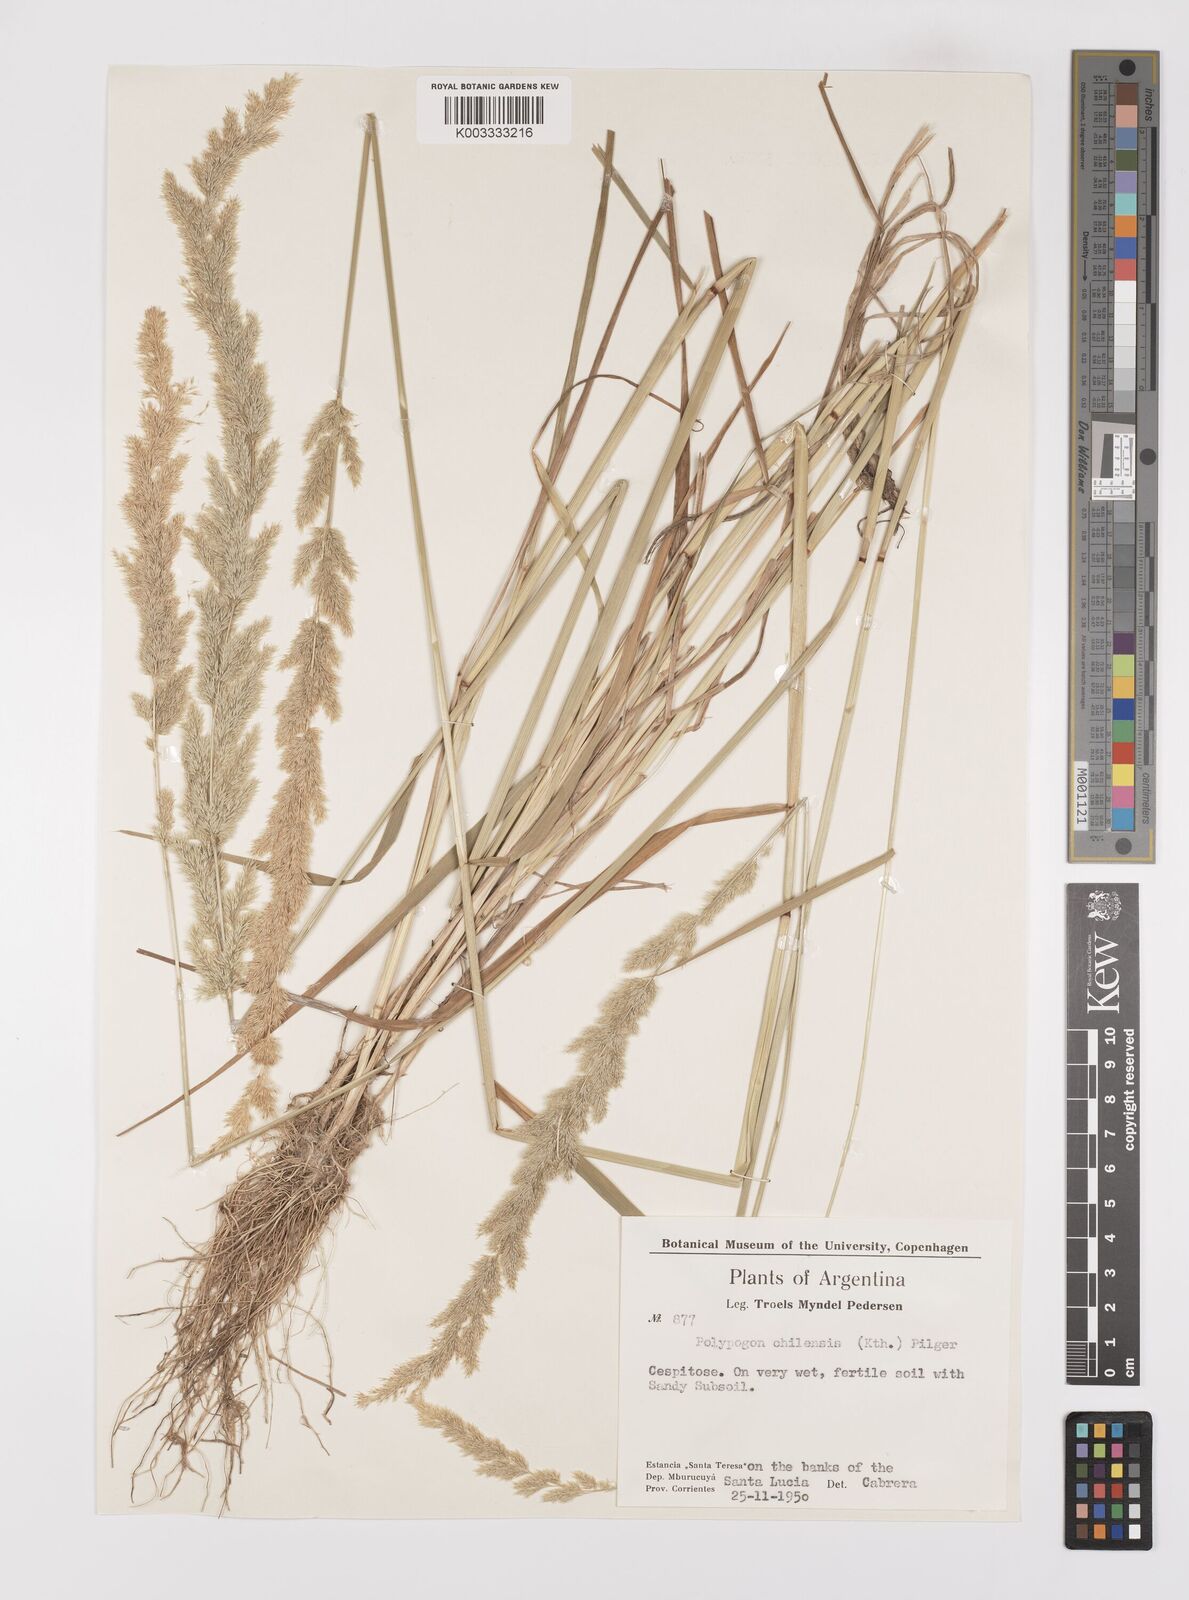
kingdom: Plantae
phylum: Tracheophyta
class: Liliopsida
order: Poales
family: Poaceae
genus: Polypogon
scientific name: Polypogon chilensis
